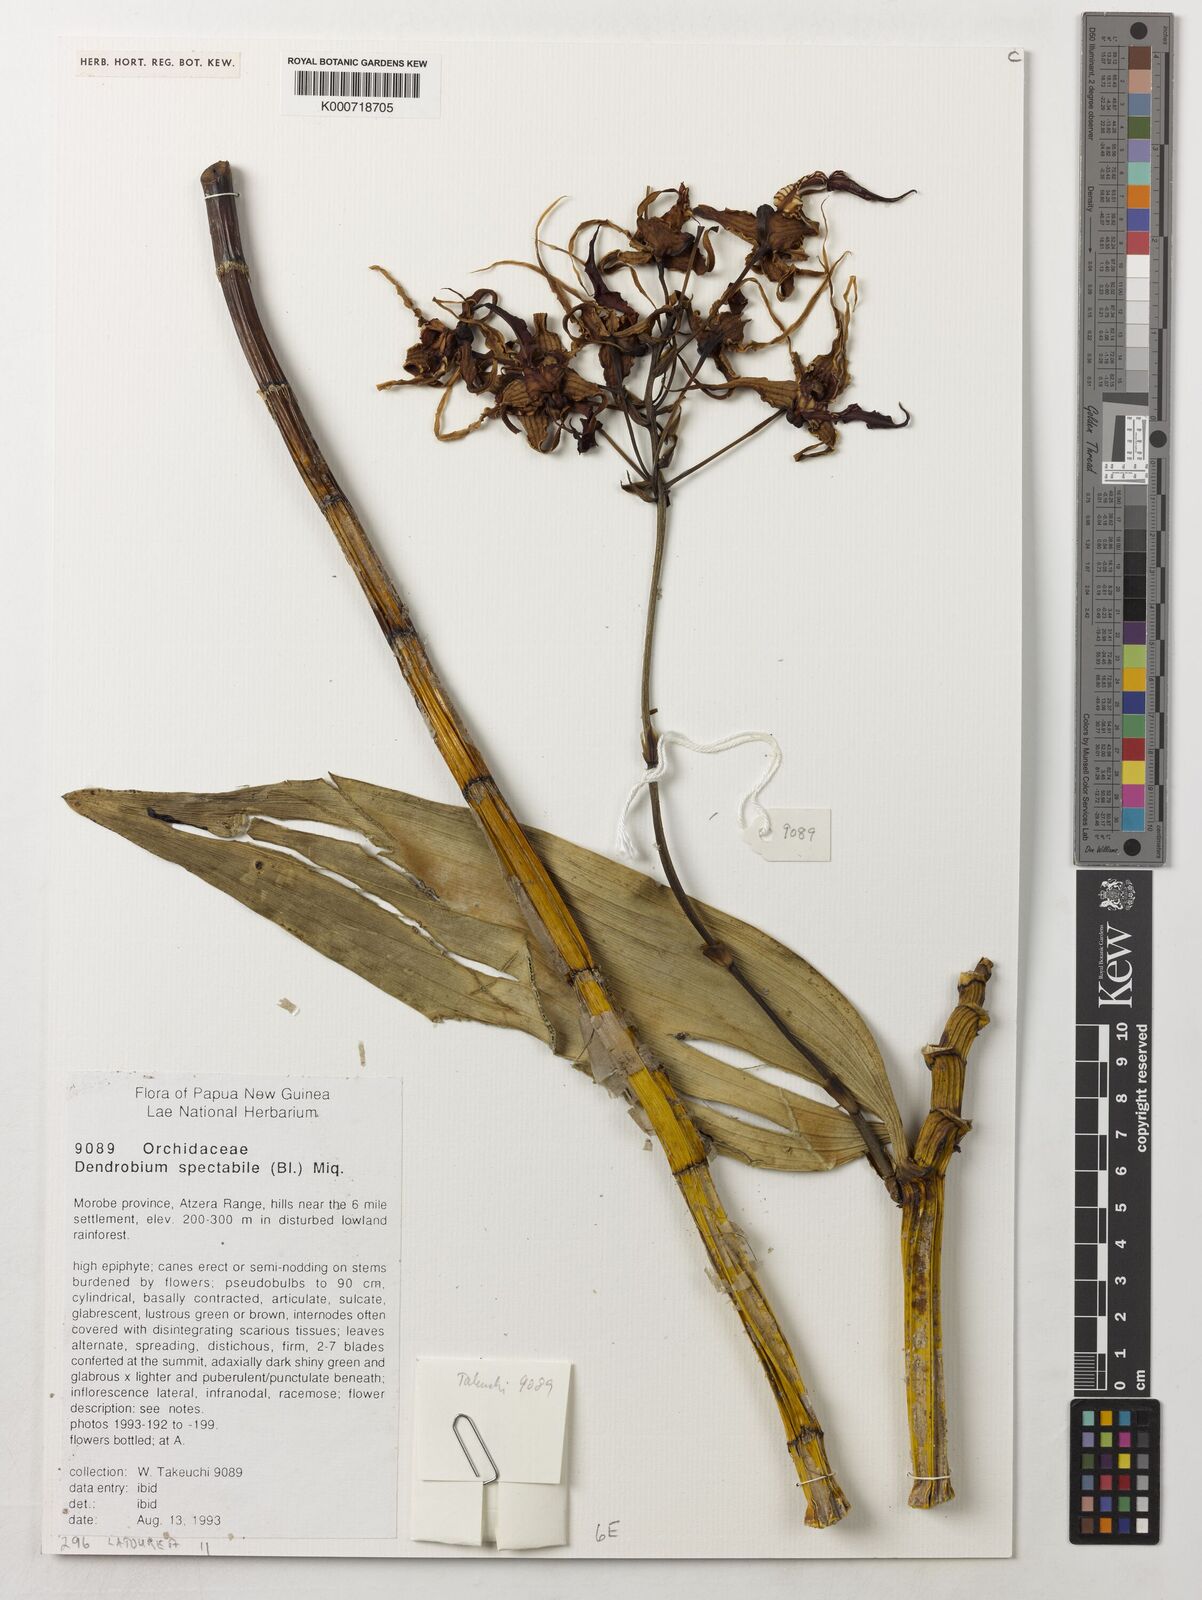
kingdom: Plantae
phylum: Tracheophyta
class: Liliopsida
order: Asparagales
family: Orchidaceae
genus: Dendrobium
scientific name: Dendrobium spectabile
